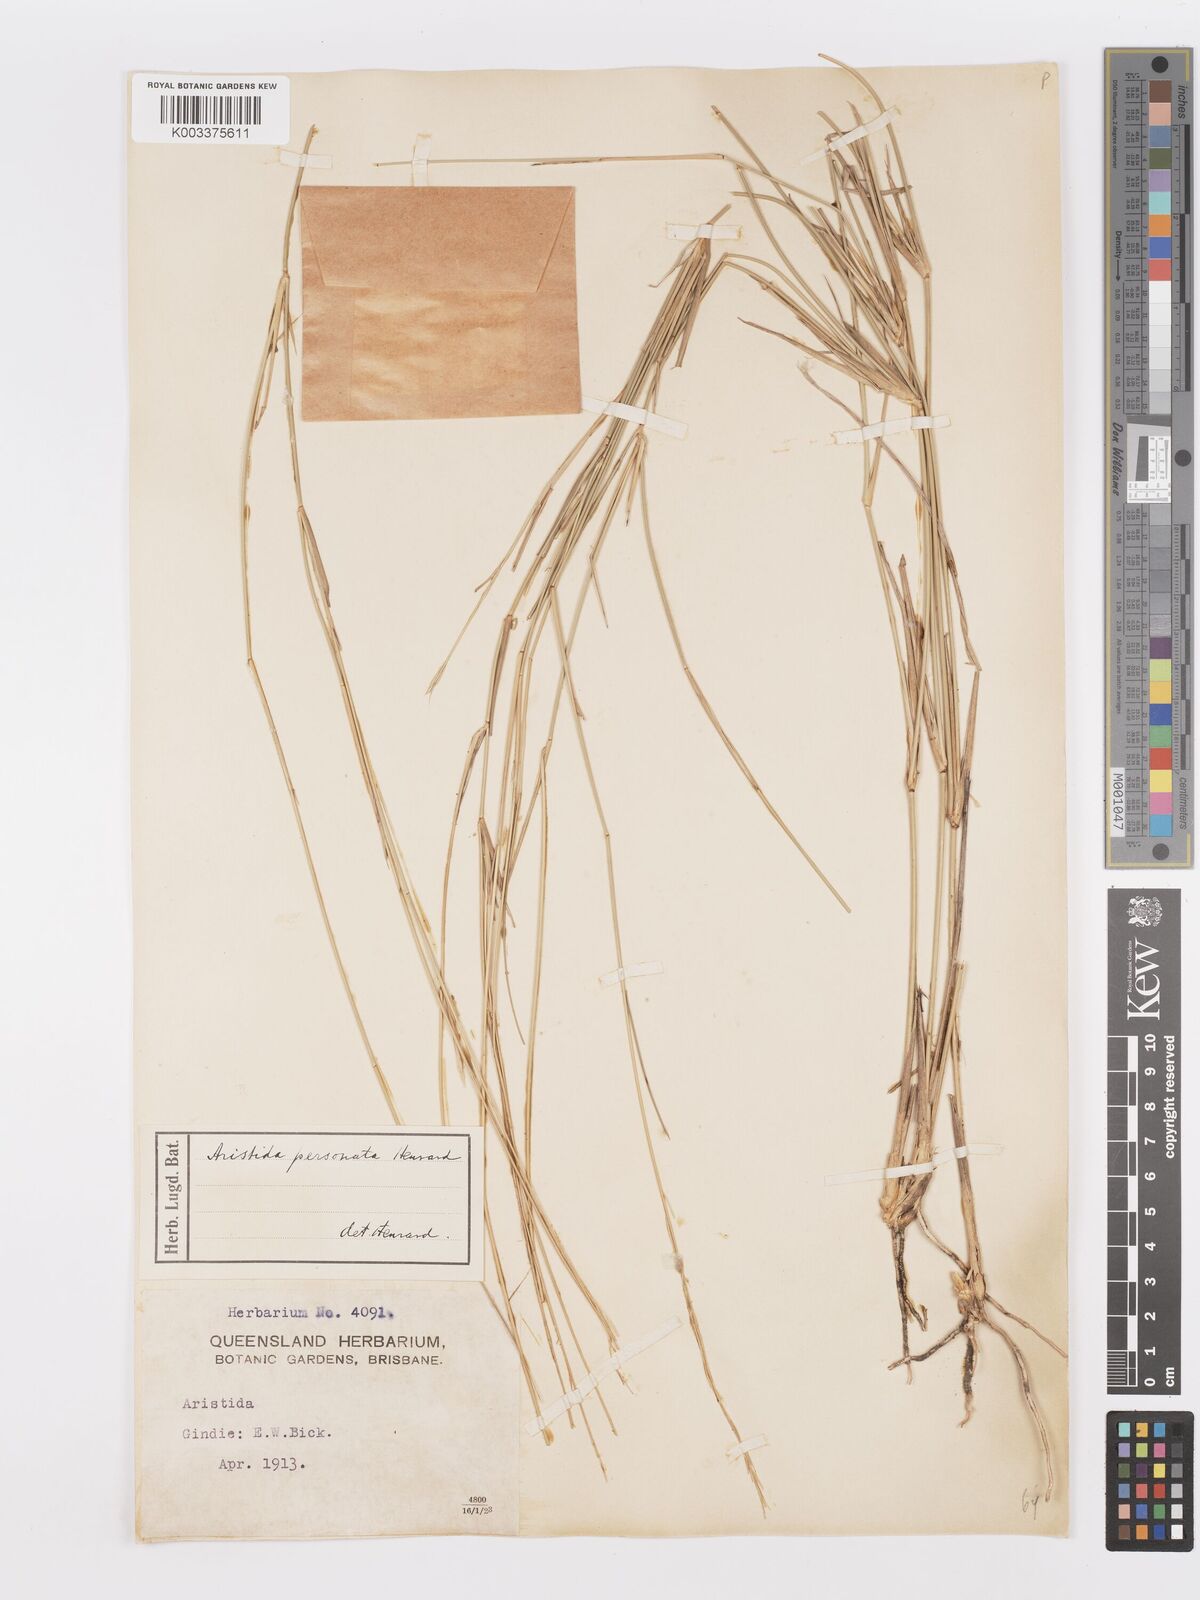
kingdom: Plantae
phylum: Tracheophyta
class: Liliopsida
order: Poales
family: Poaceae
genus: Aristida
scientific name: Aristida personata
